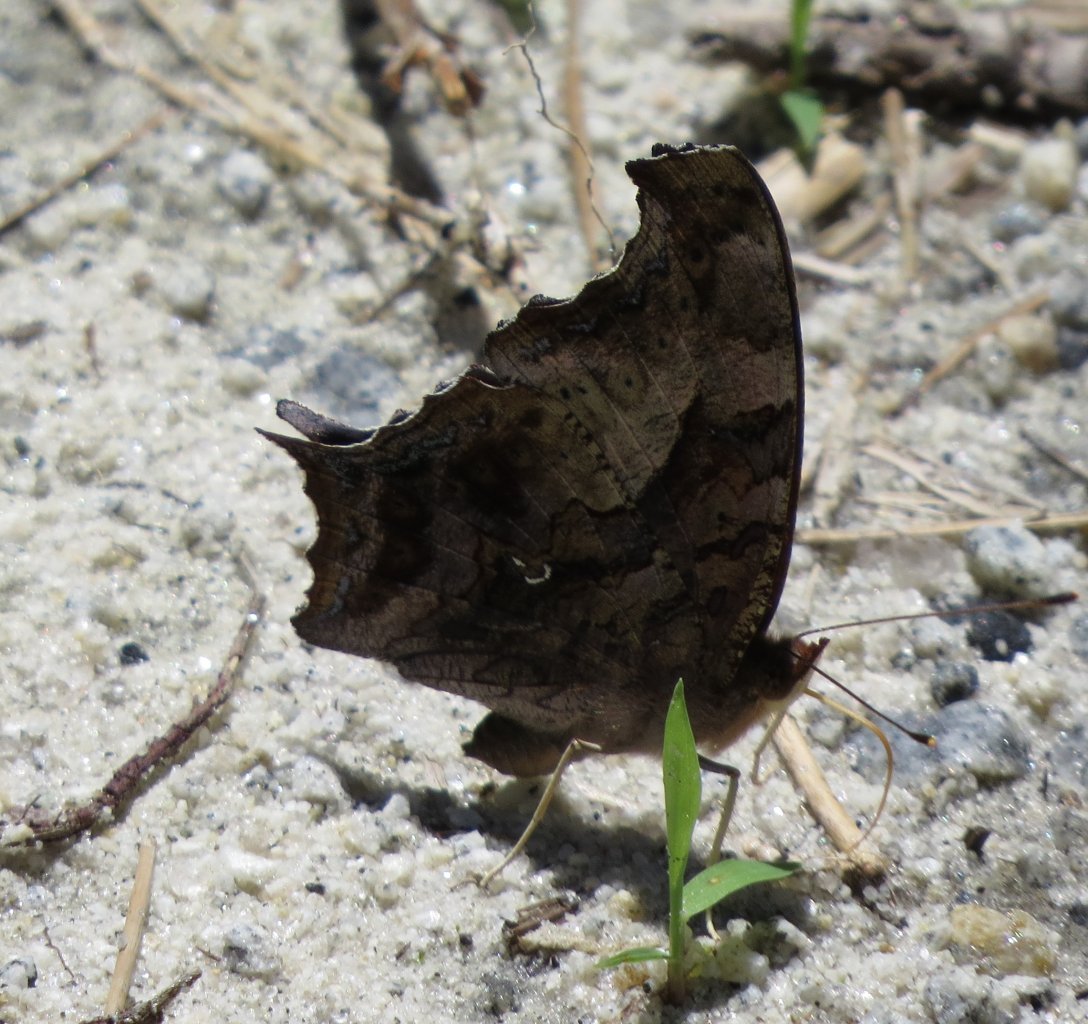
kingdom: Animalia
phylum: Arthropoda
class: Insecta
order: Lepidoptera
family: Nymphalidae
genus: Polygonia
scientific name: Polygonia interrogationis
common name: Question Mark
